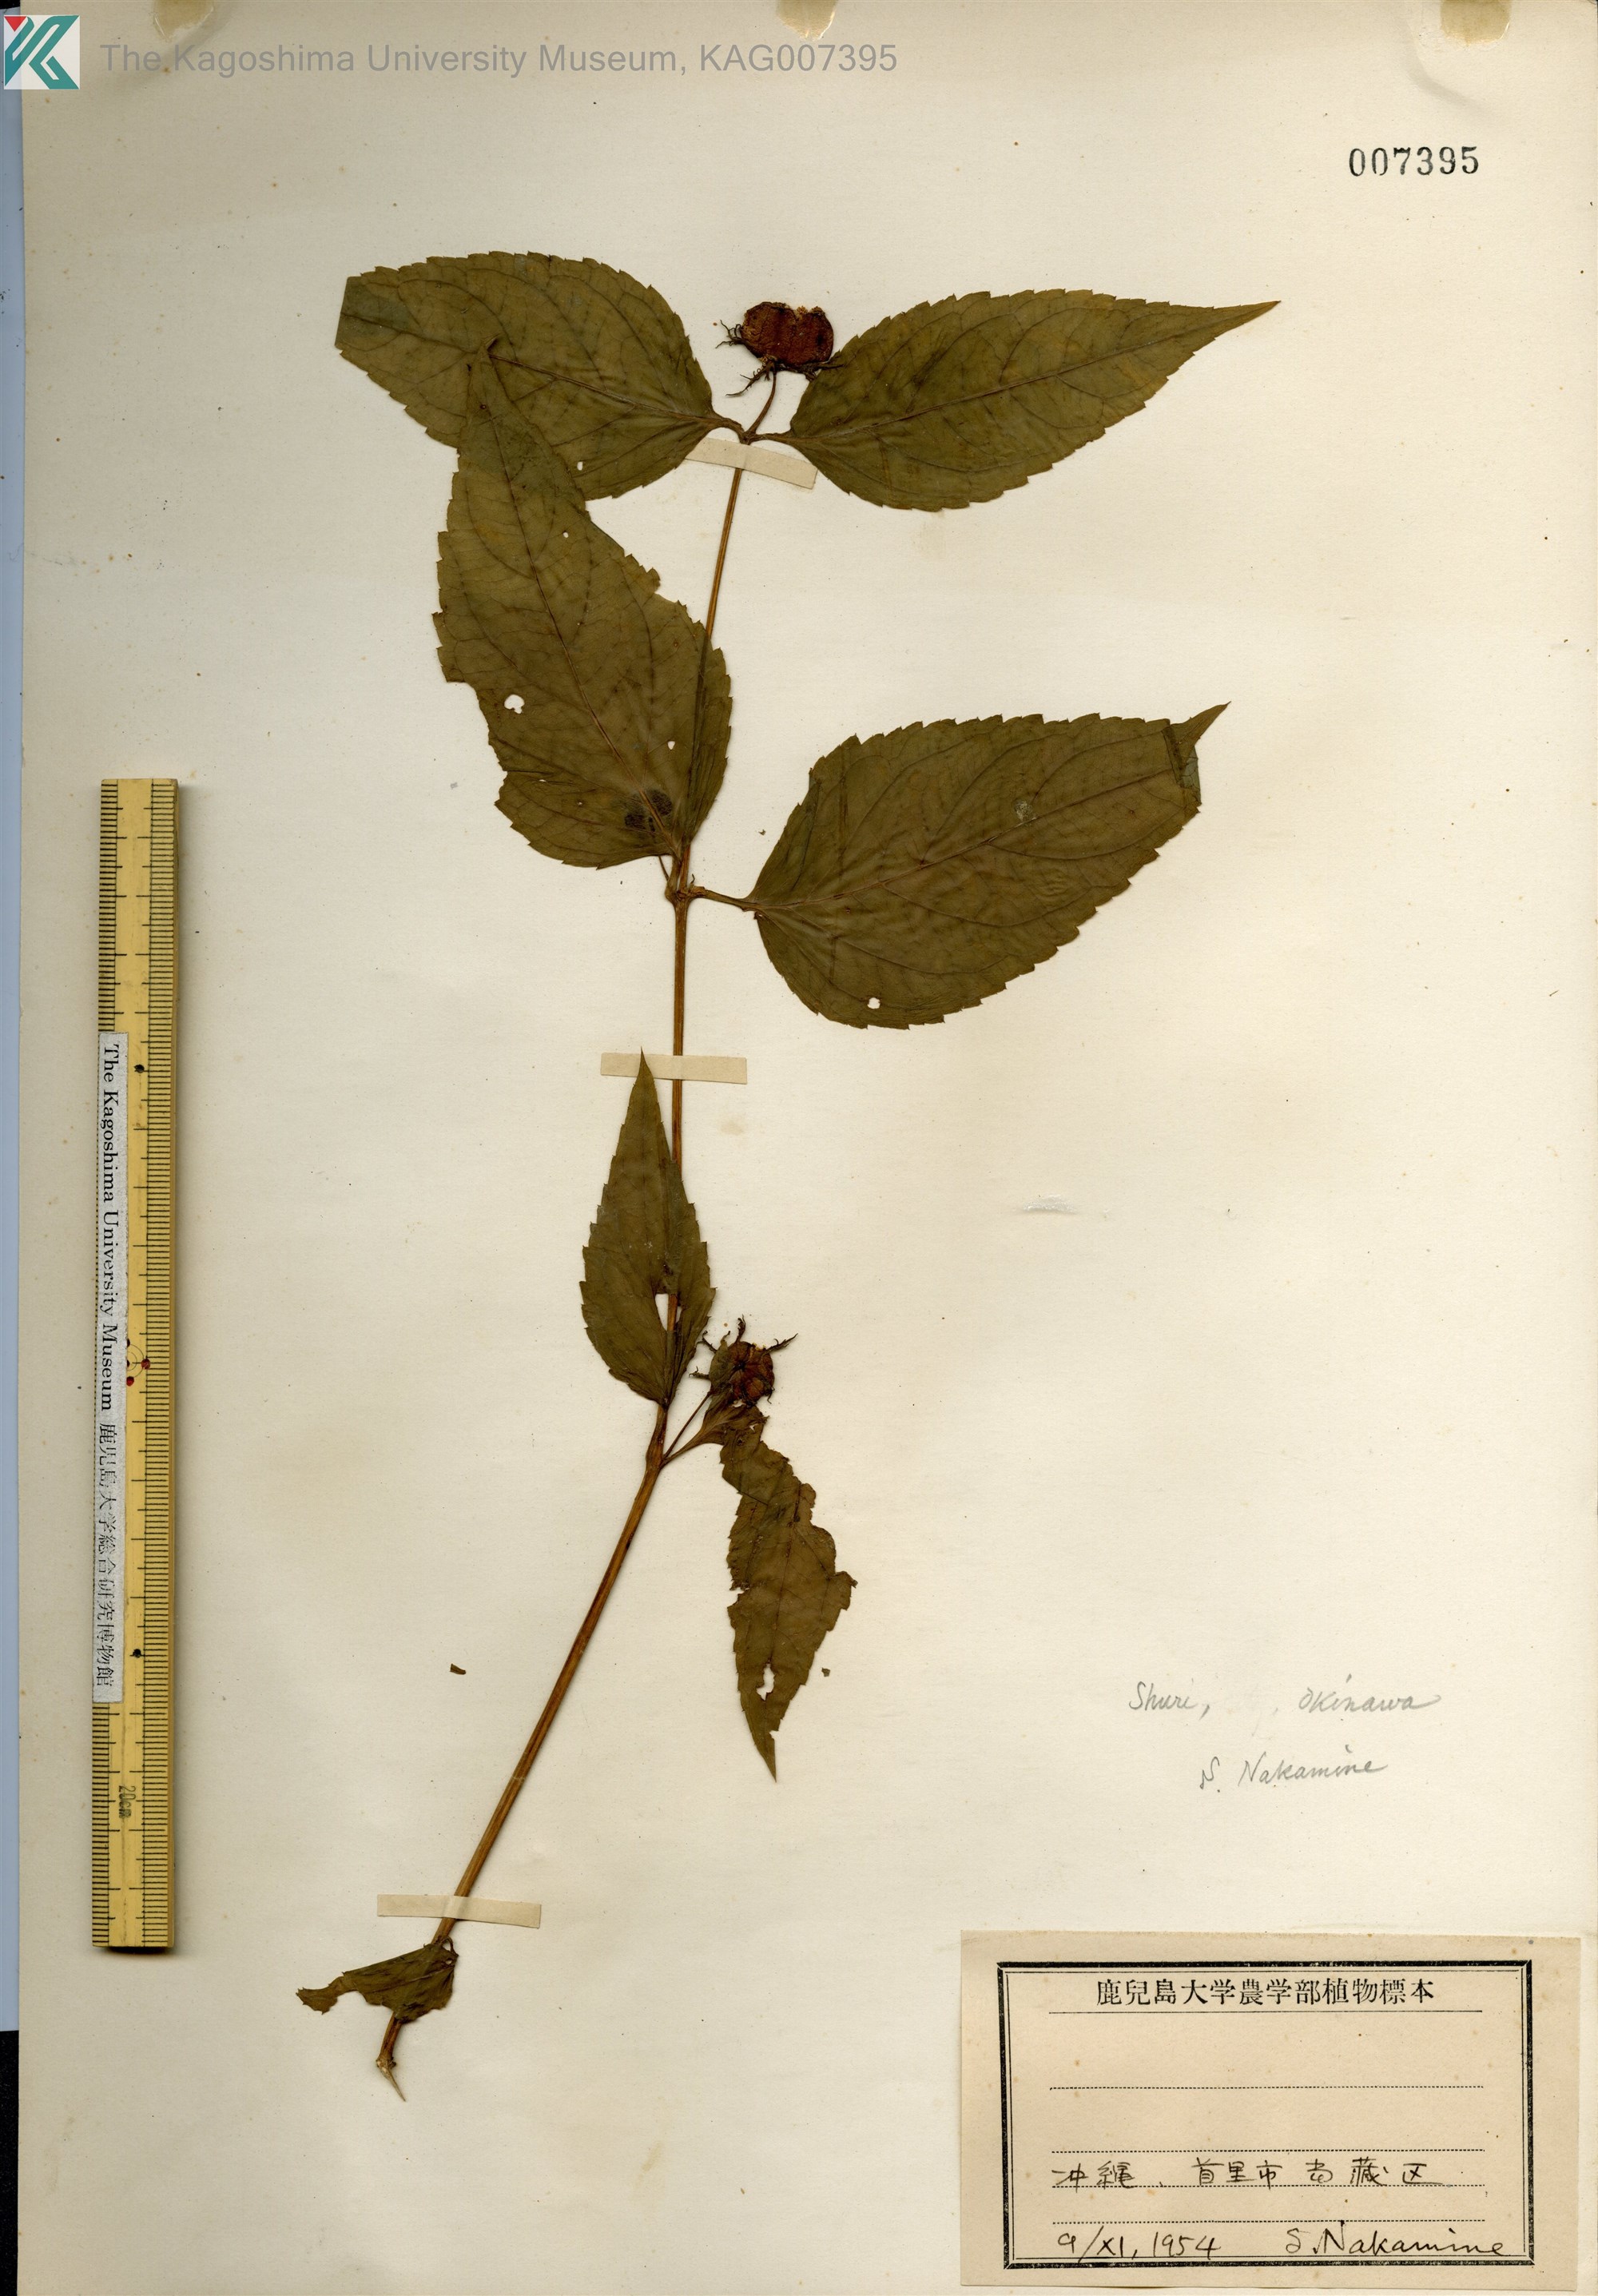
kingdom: Plantae
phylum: Tracheophyta
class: Magnoliopsida
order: Asterales
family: Campanulaceae
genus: Cyclocodon
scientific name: Cyclocodon lancifolius
